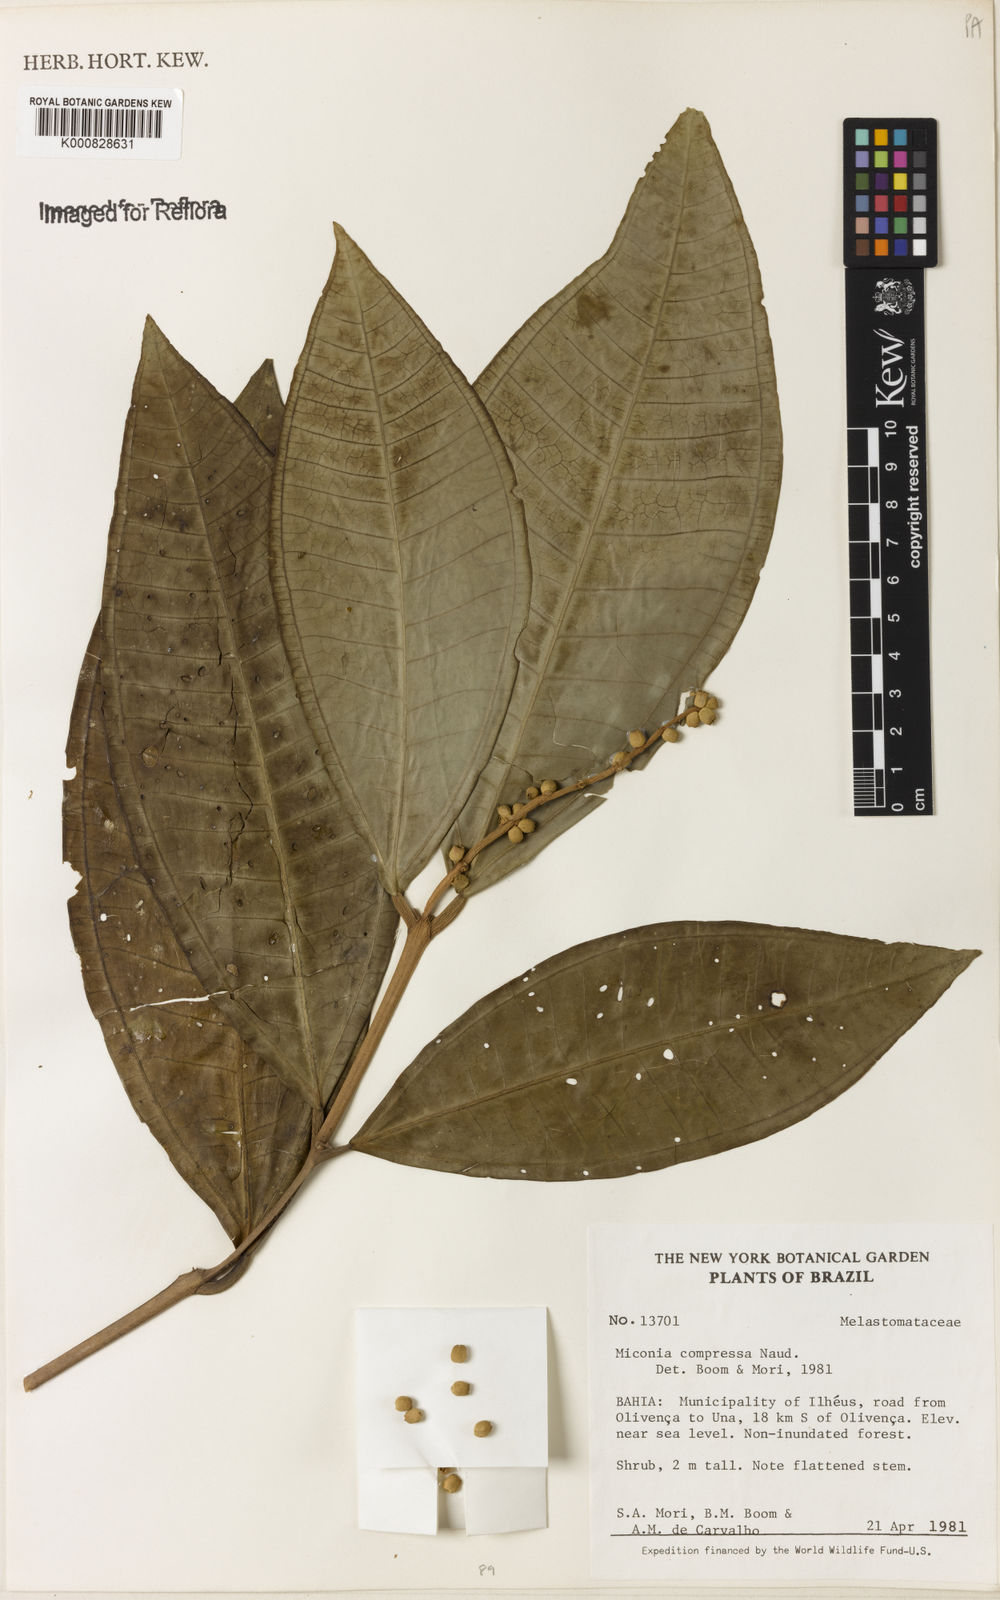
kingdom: Plantae
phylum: Tracheophyta
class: Magnoliopsida
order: Myrtales
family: Melastomataceae
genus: Miconia
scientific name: Miconia compressa
